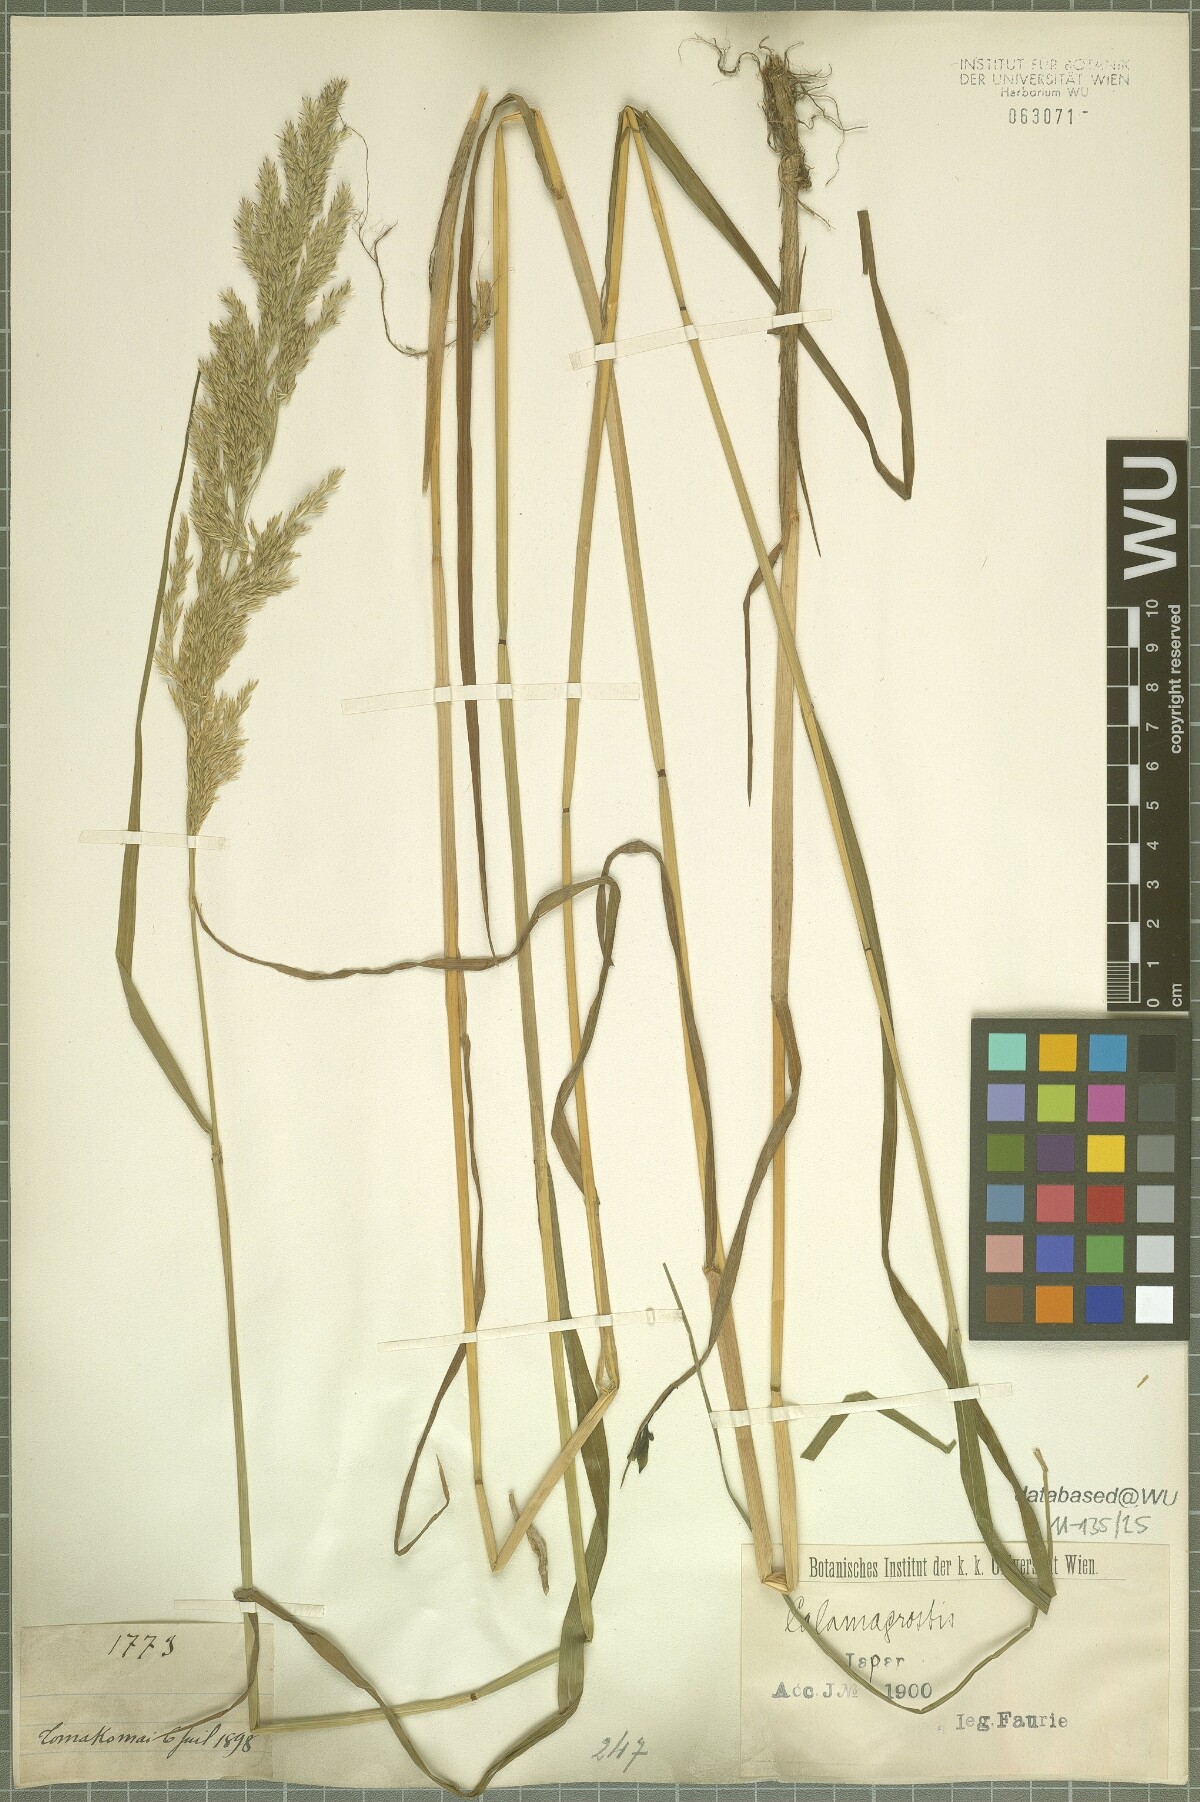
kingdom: Plantae
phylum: Tracheophyta
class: Liliopsida
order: Poales
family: Poaceae
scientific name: Poaceae
